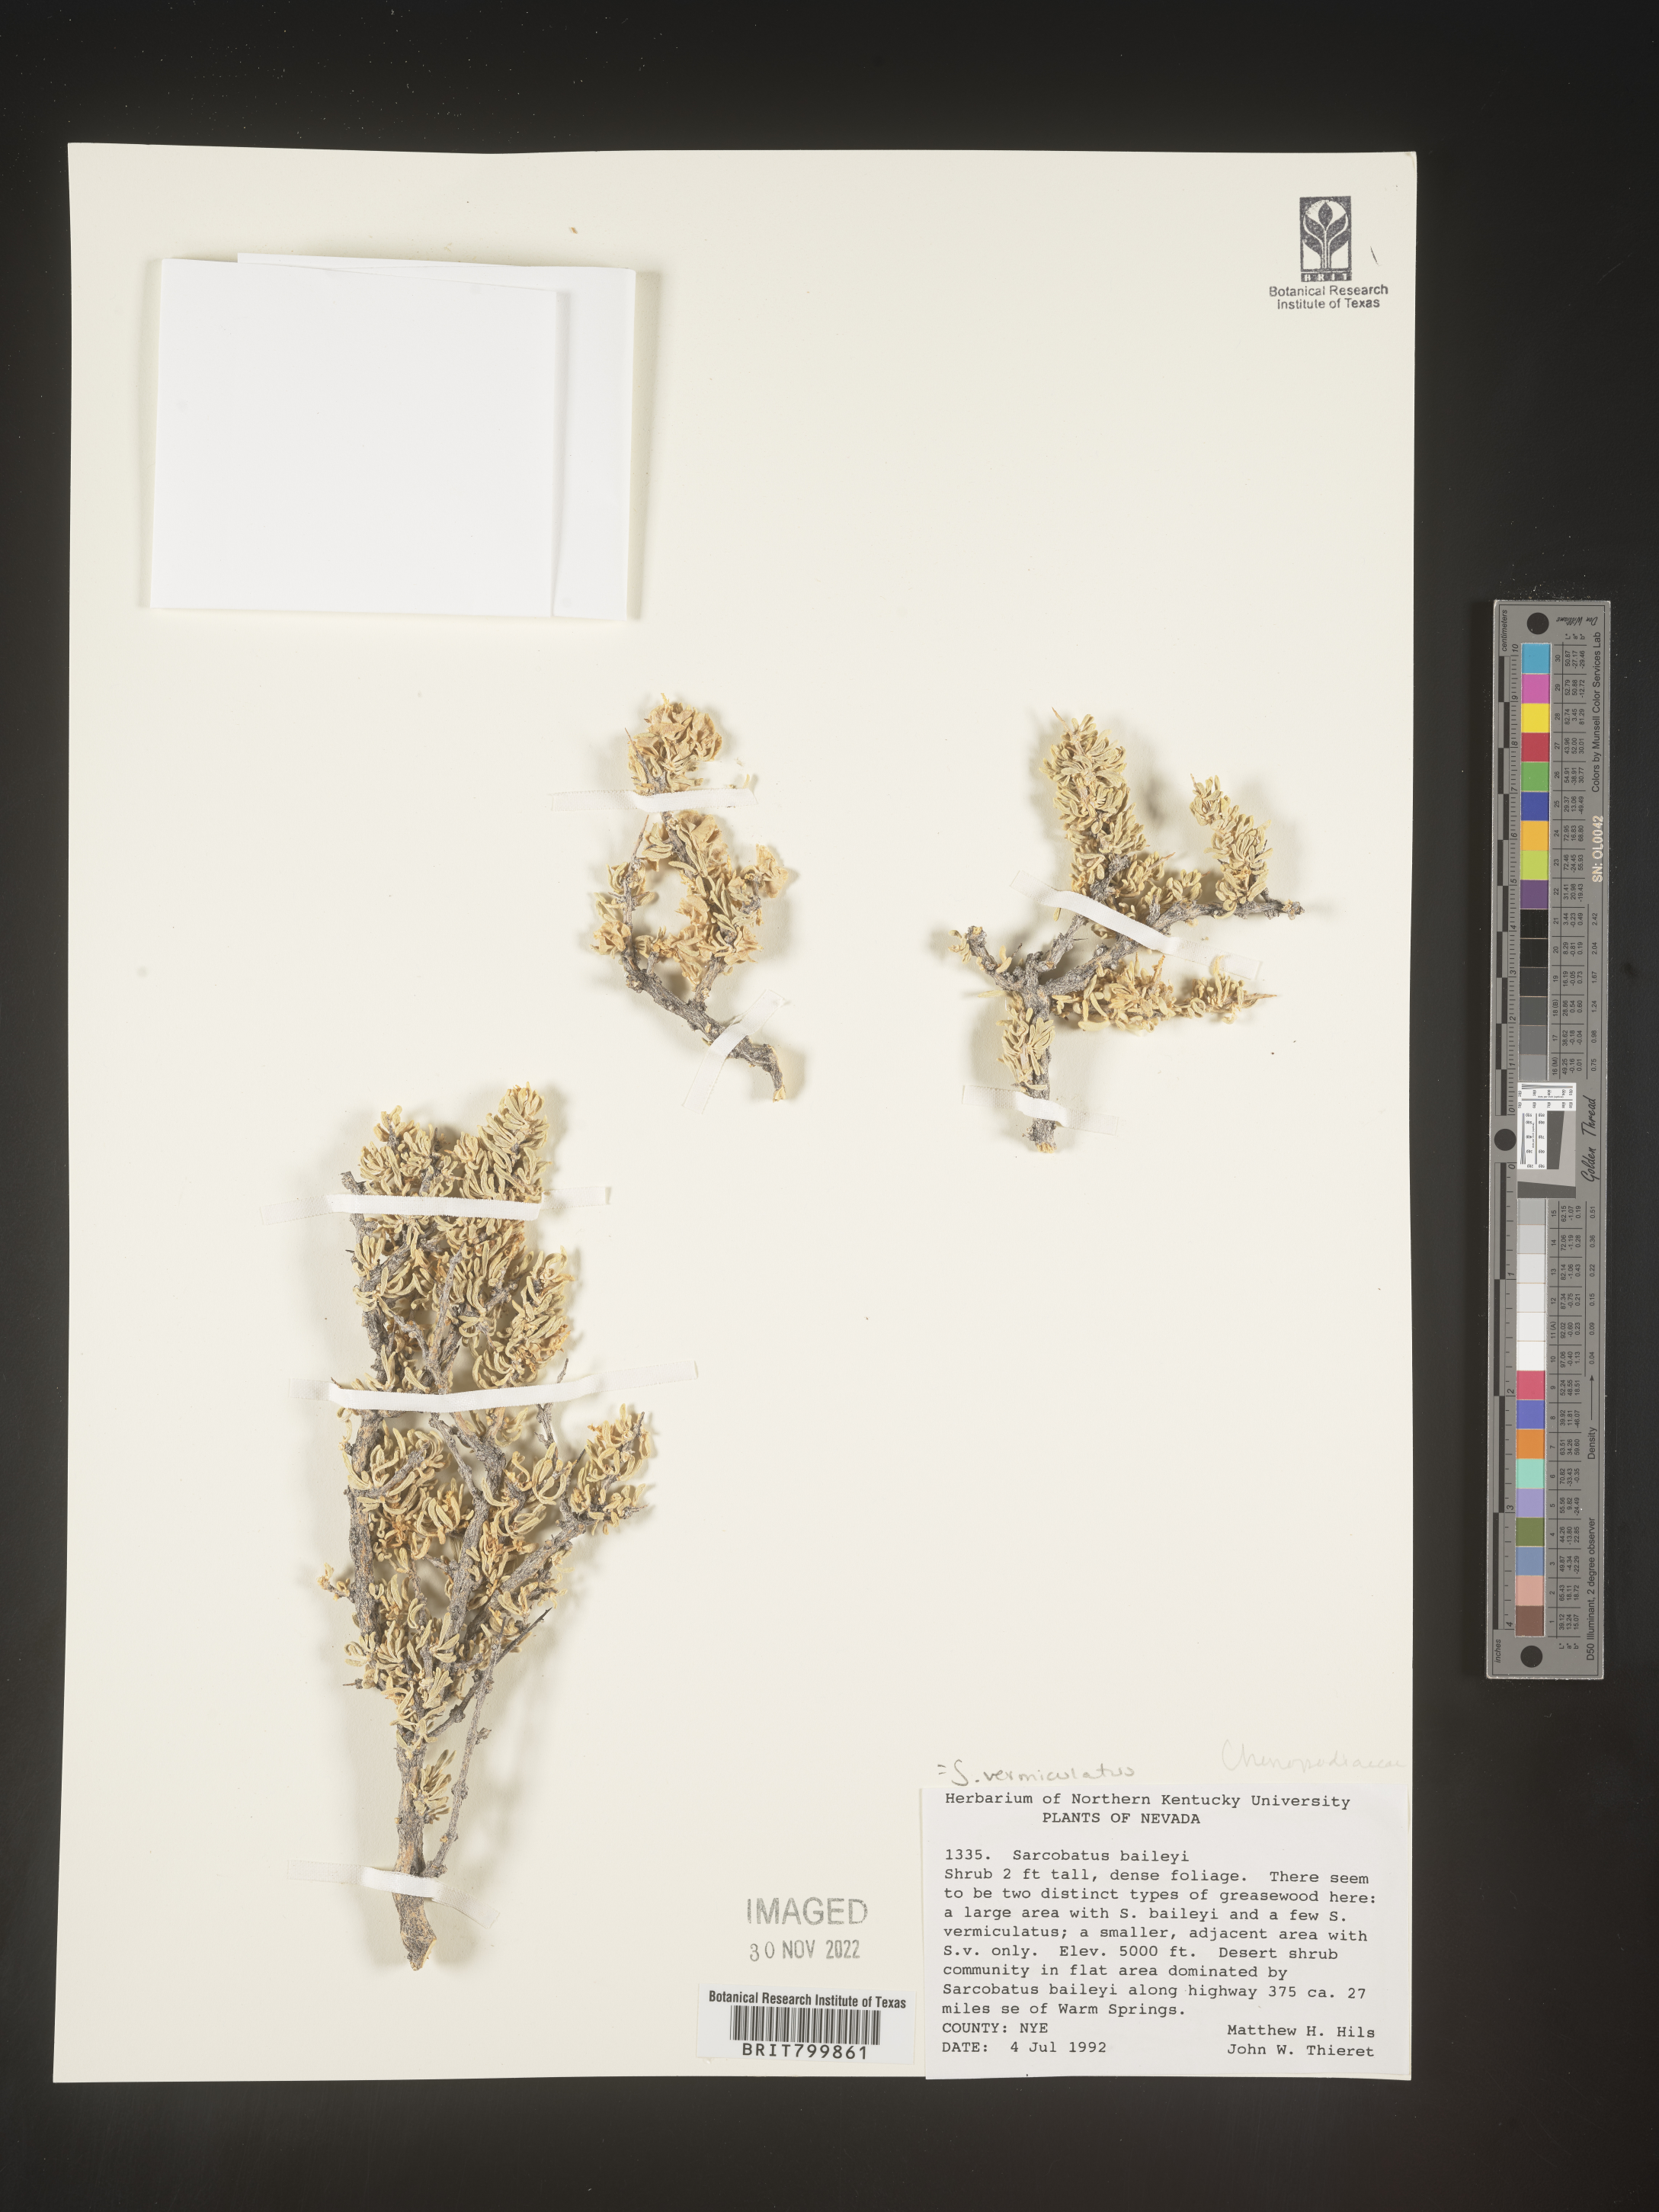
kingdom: Plantae
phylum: Tracheophyta
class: Magnoliopsida
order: Caryophyllales
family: Sarcobataceae
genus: Sarcobatus
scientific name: Sarcobatus vermiculatus
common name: Greasewood
